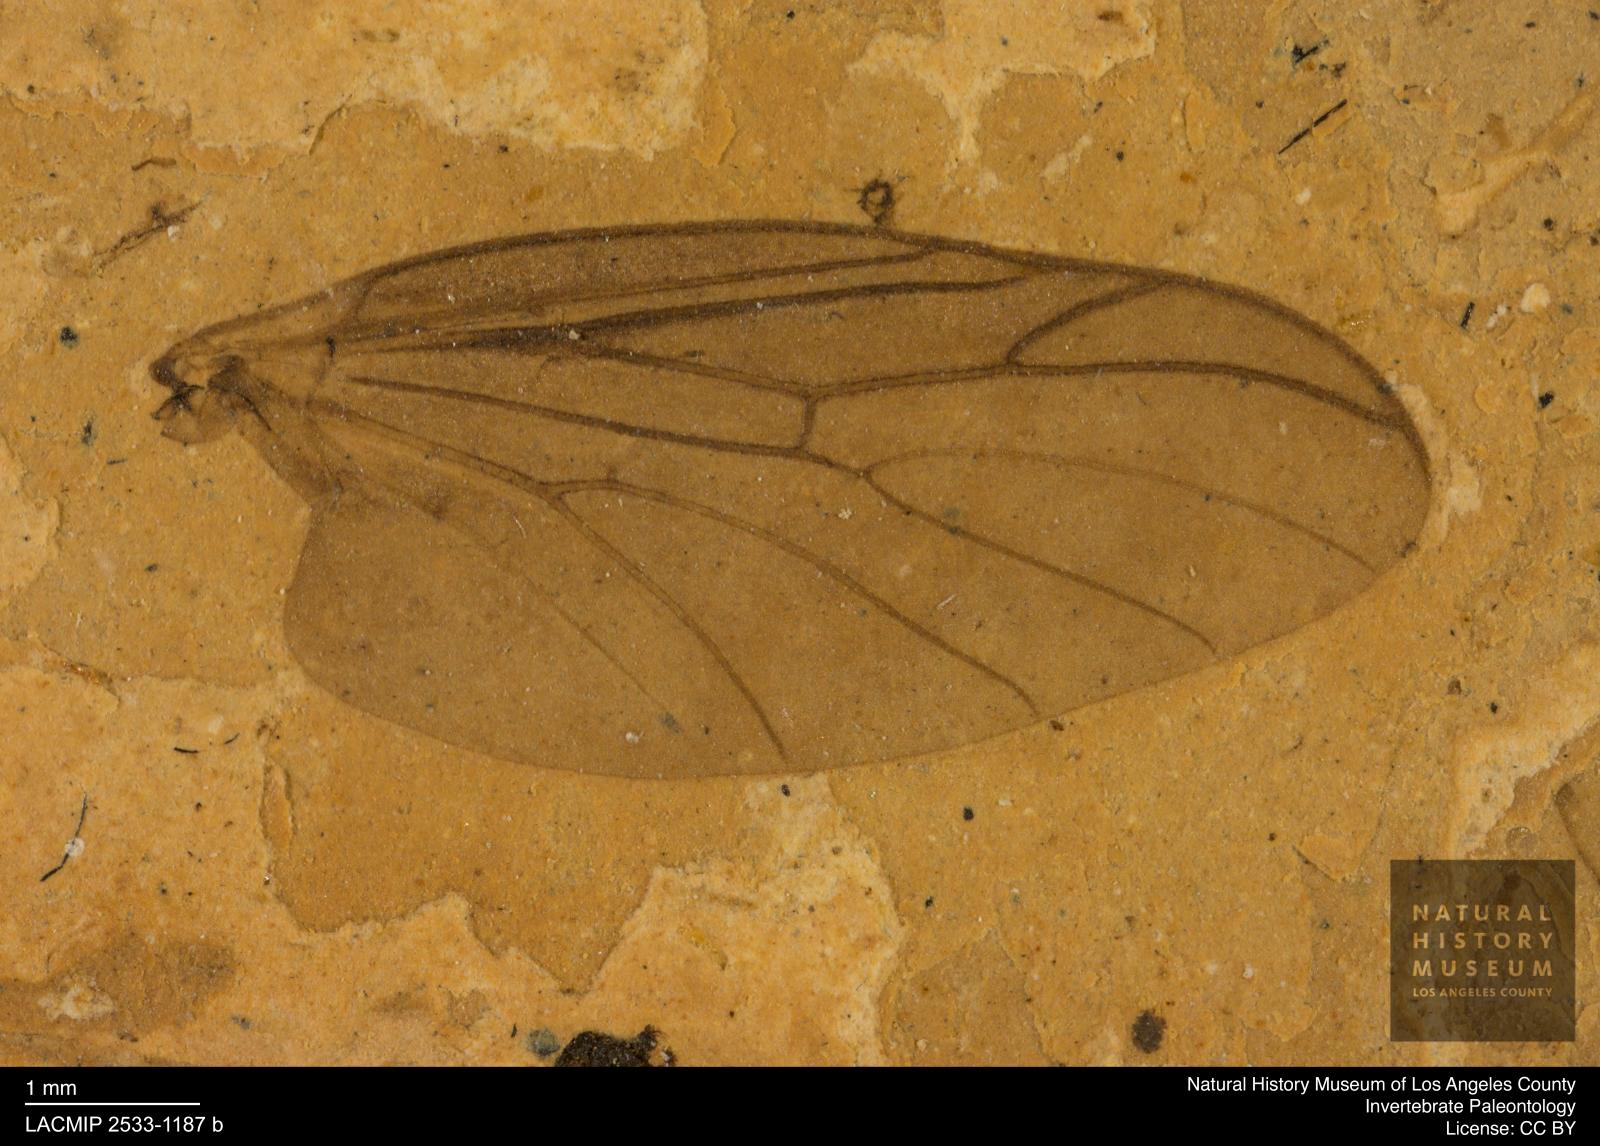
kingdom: Animalia
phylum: Arthropoda
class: Insecta
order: Diptera
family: Bibionidae
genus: Plecia
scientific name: Plecia grossa
